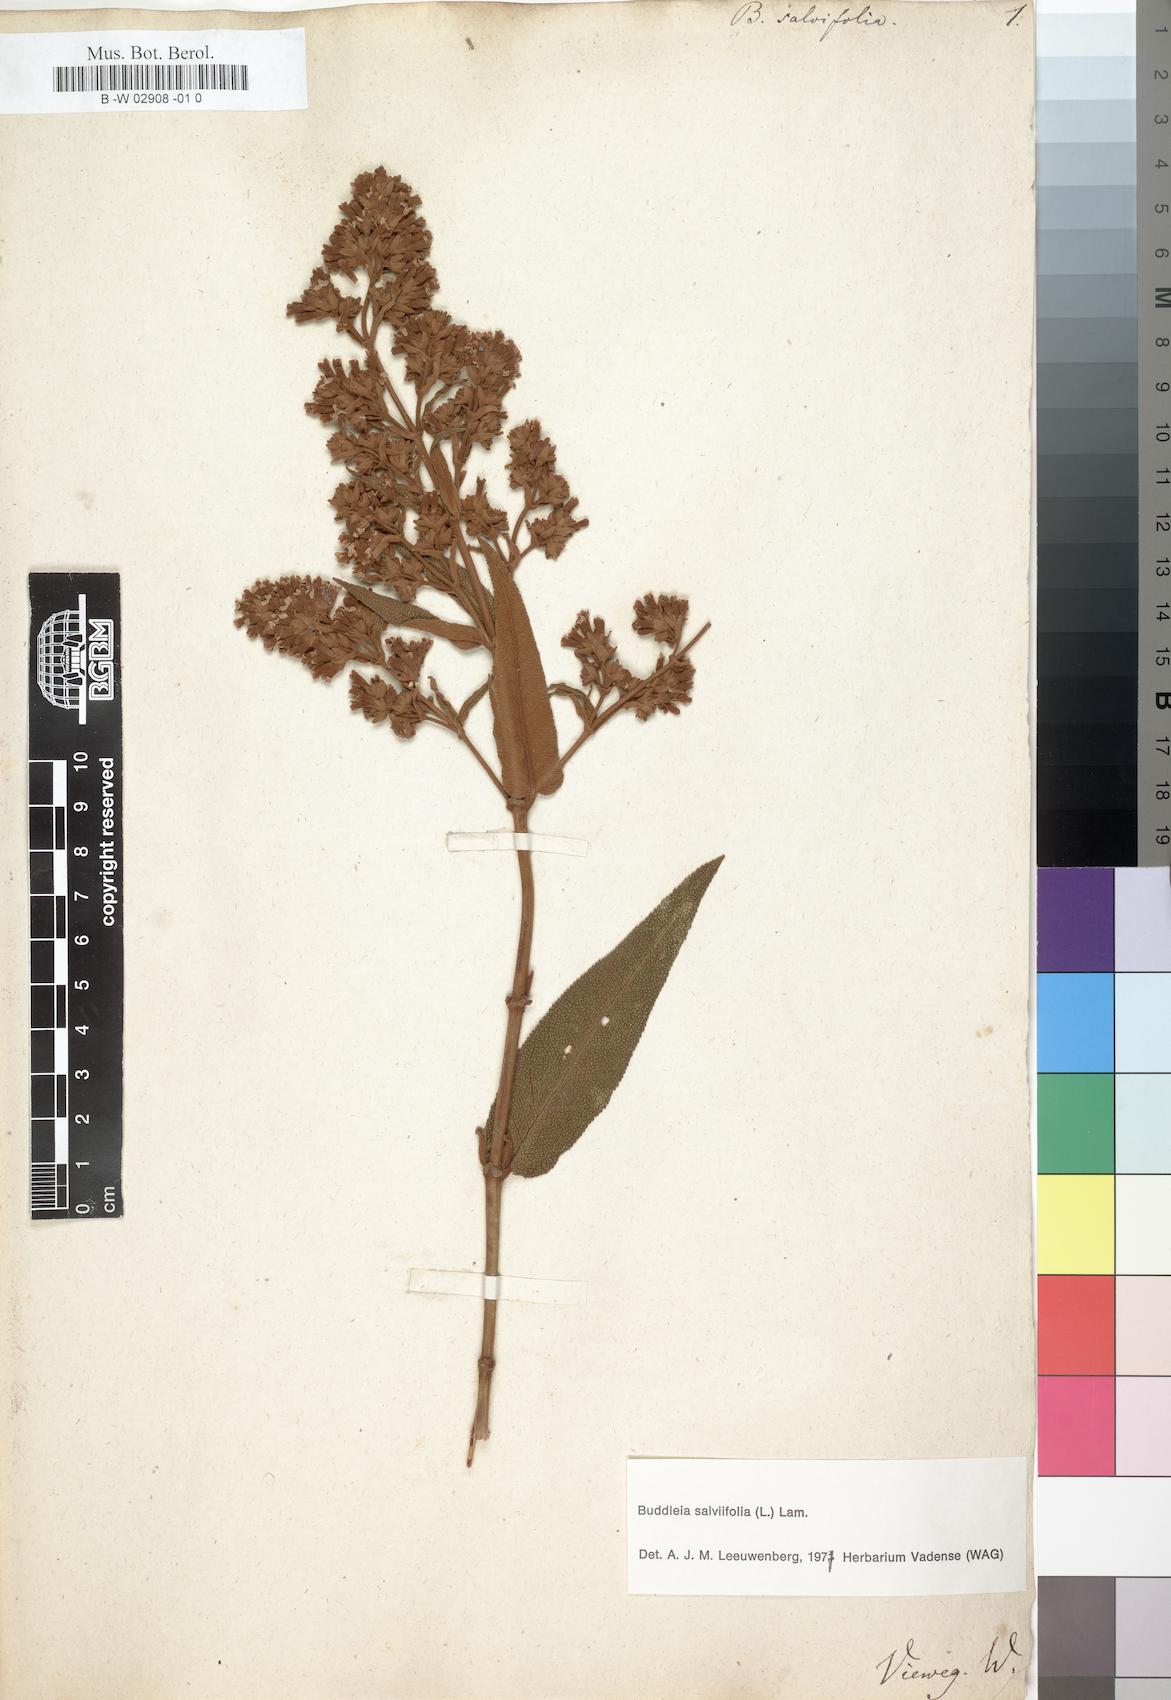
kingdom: Plantae
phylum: Tracheophyta
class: Magnoliopsida
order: Lamiales
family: Scrophulariaceae
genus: Buddleja
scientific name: Buddleja salviifolia
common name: Sagewood
